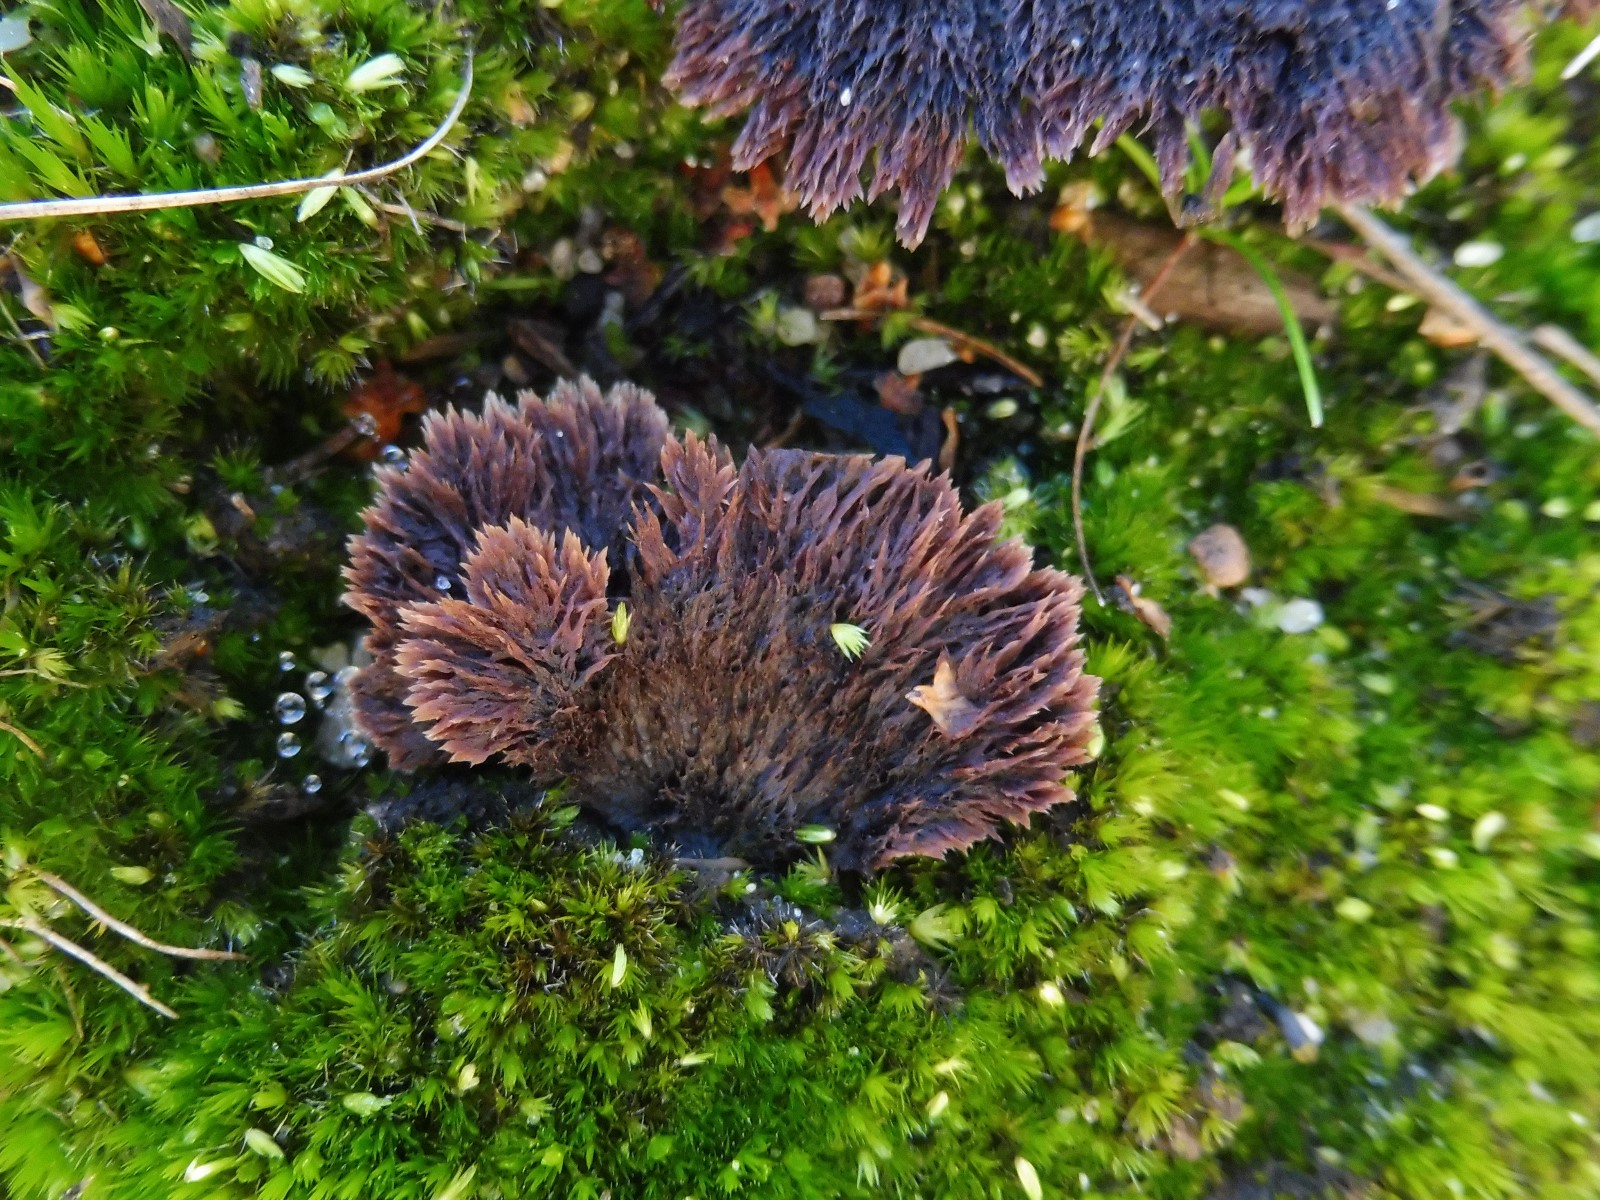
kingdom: Fungi
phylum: Basidiomycota
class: Agaricomycetes
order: Thelephorales
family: Thelephoraceae
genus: Thelephora
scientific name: Thelephora terrestris
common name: fliget frynsesvamp
